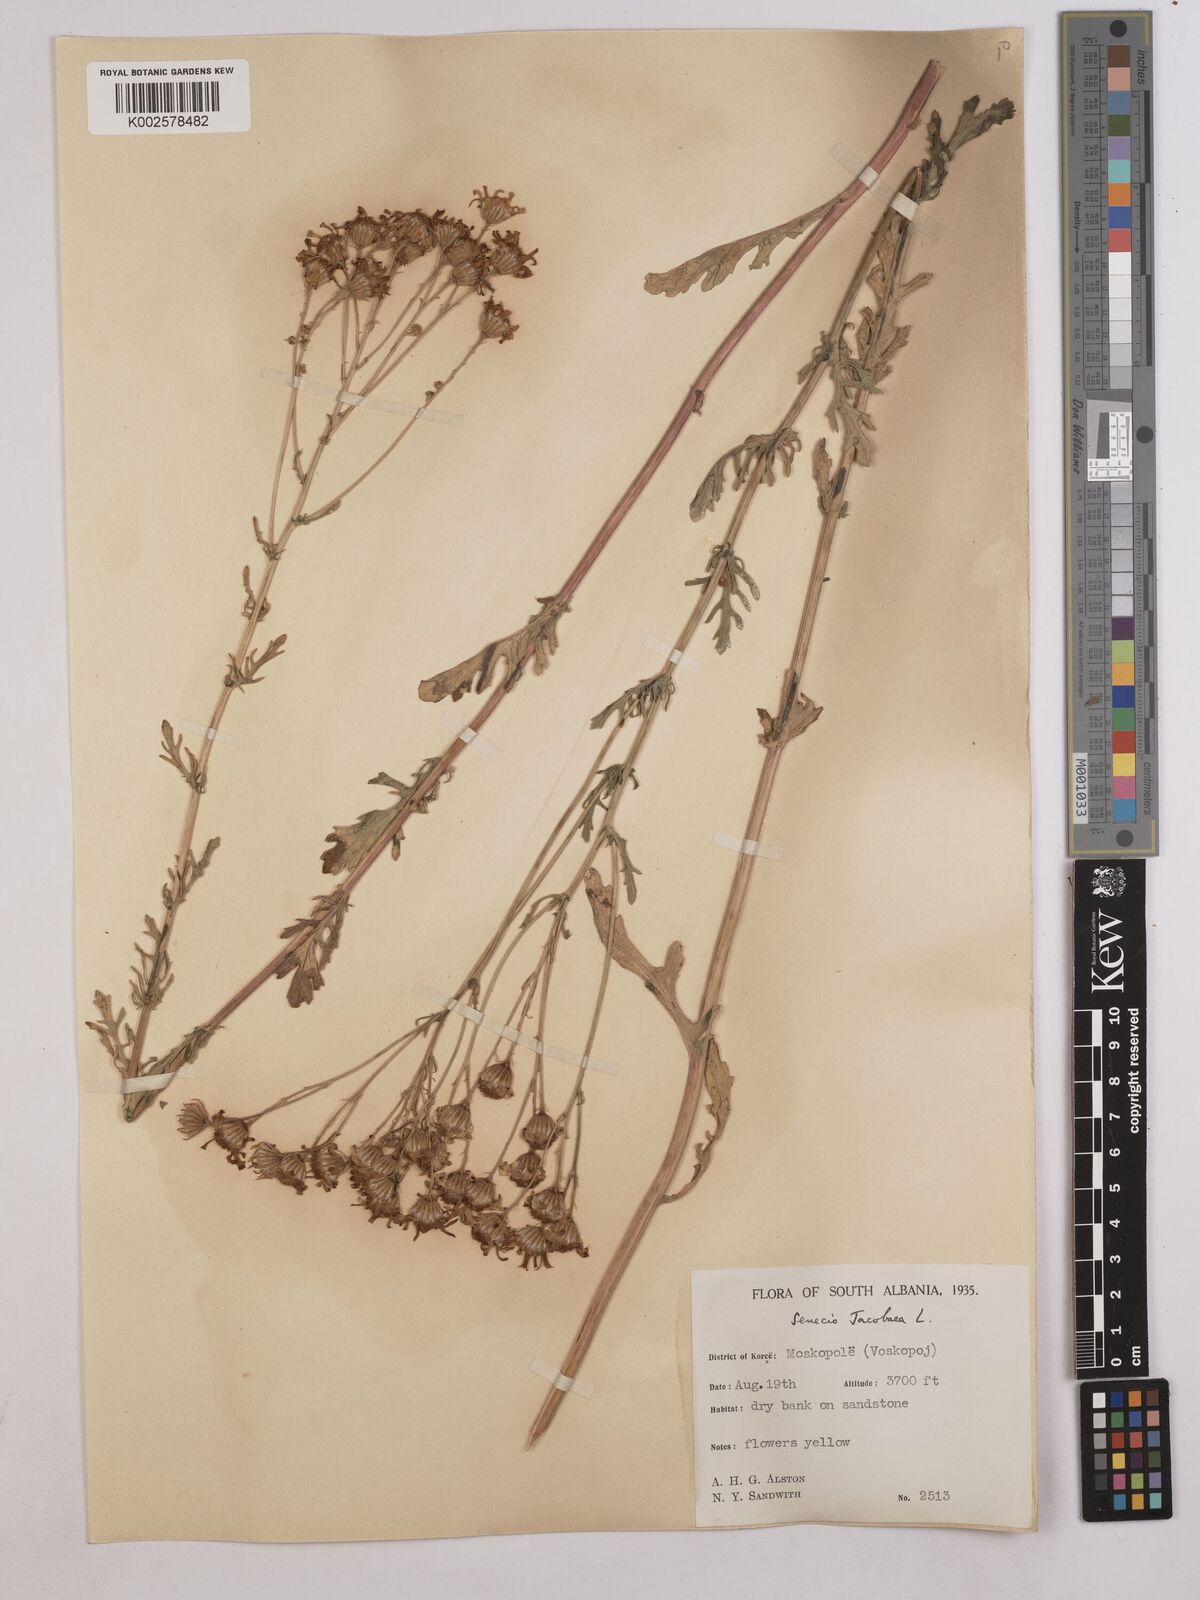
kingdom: Plantae
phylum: Tracheophyta
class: Magnoliopsida
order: Asterales
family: Asteraceae
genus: Jacobaea
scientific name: Jacobaea vulgaris
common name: Stinking willie
